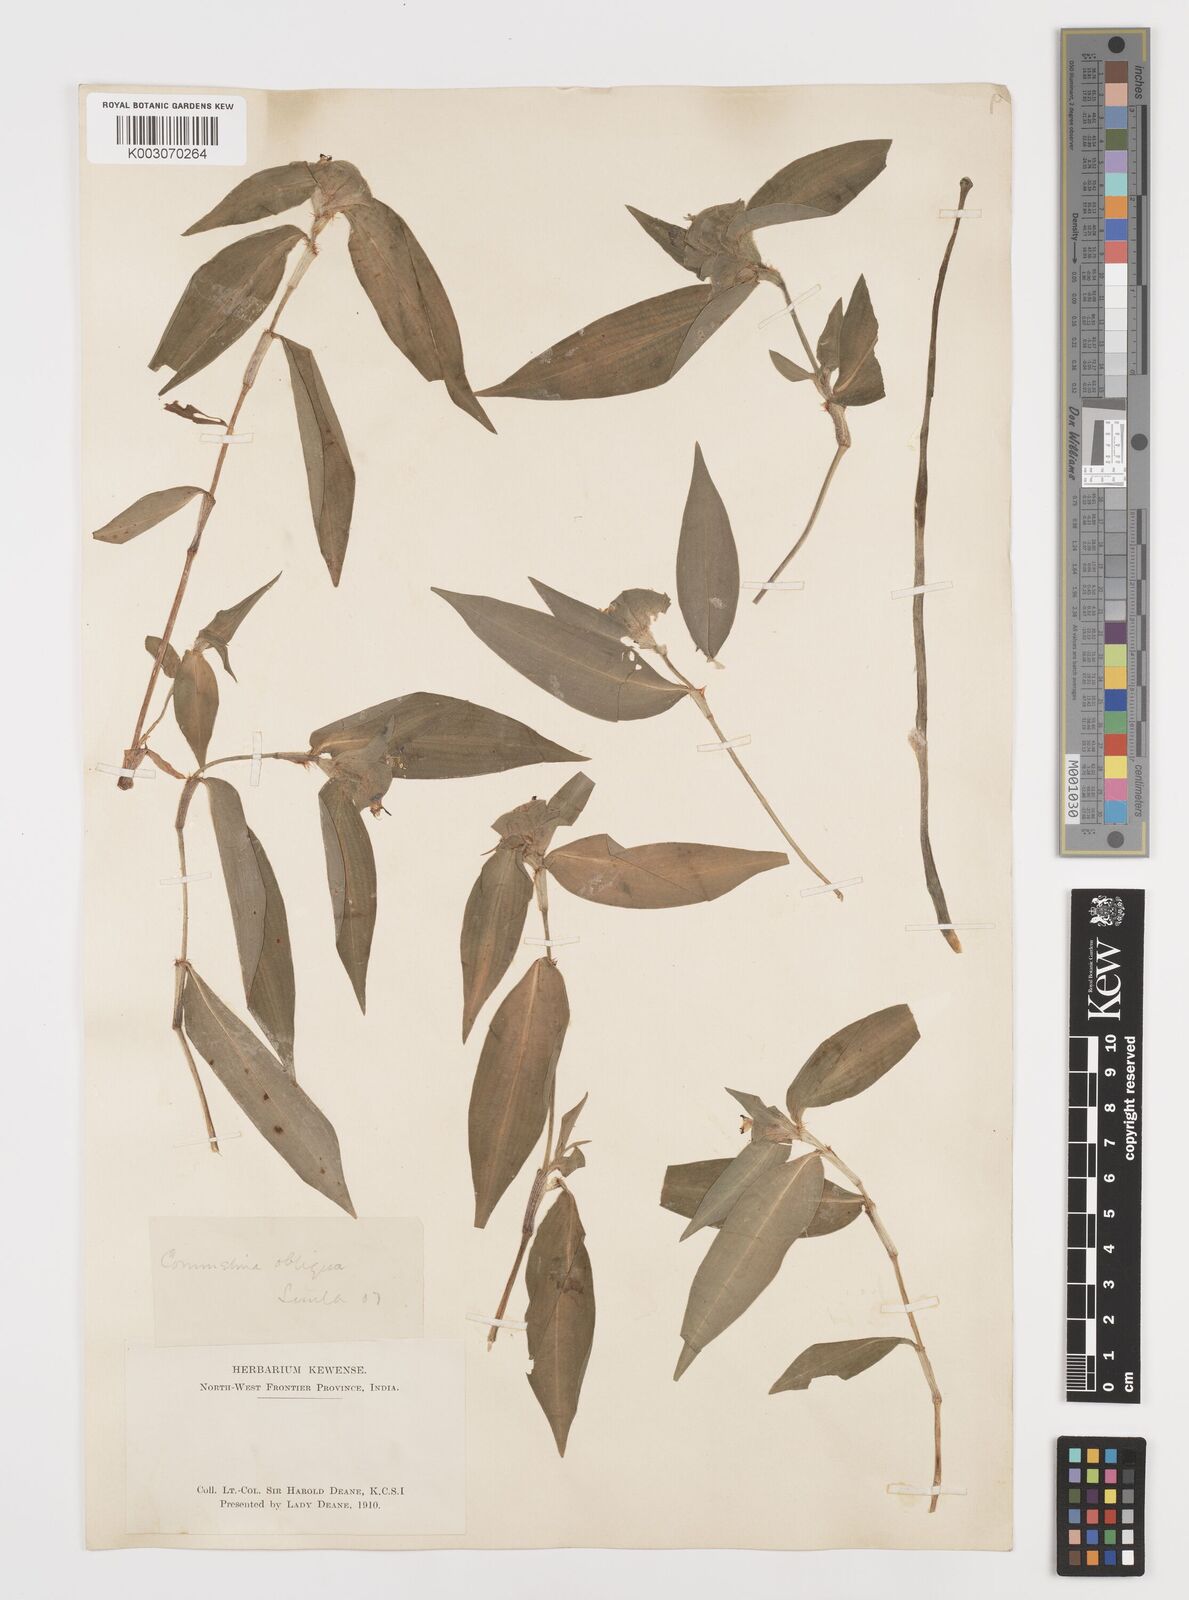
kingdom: Plantae
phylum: Tracheophyta
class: Liliopsida
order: Commelinales
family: Commelinaceae
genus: Commelina
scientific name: Commelina paludosa
